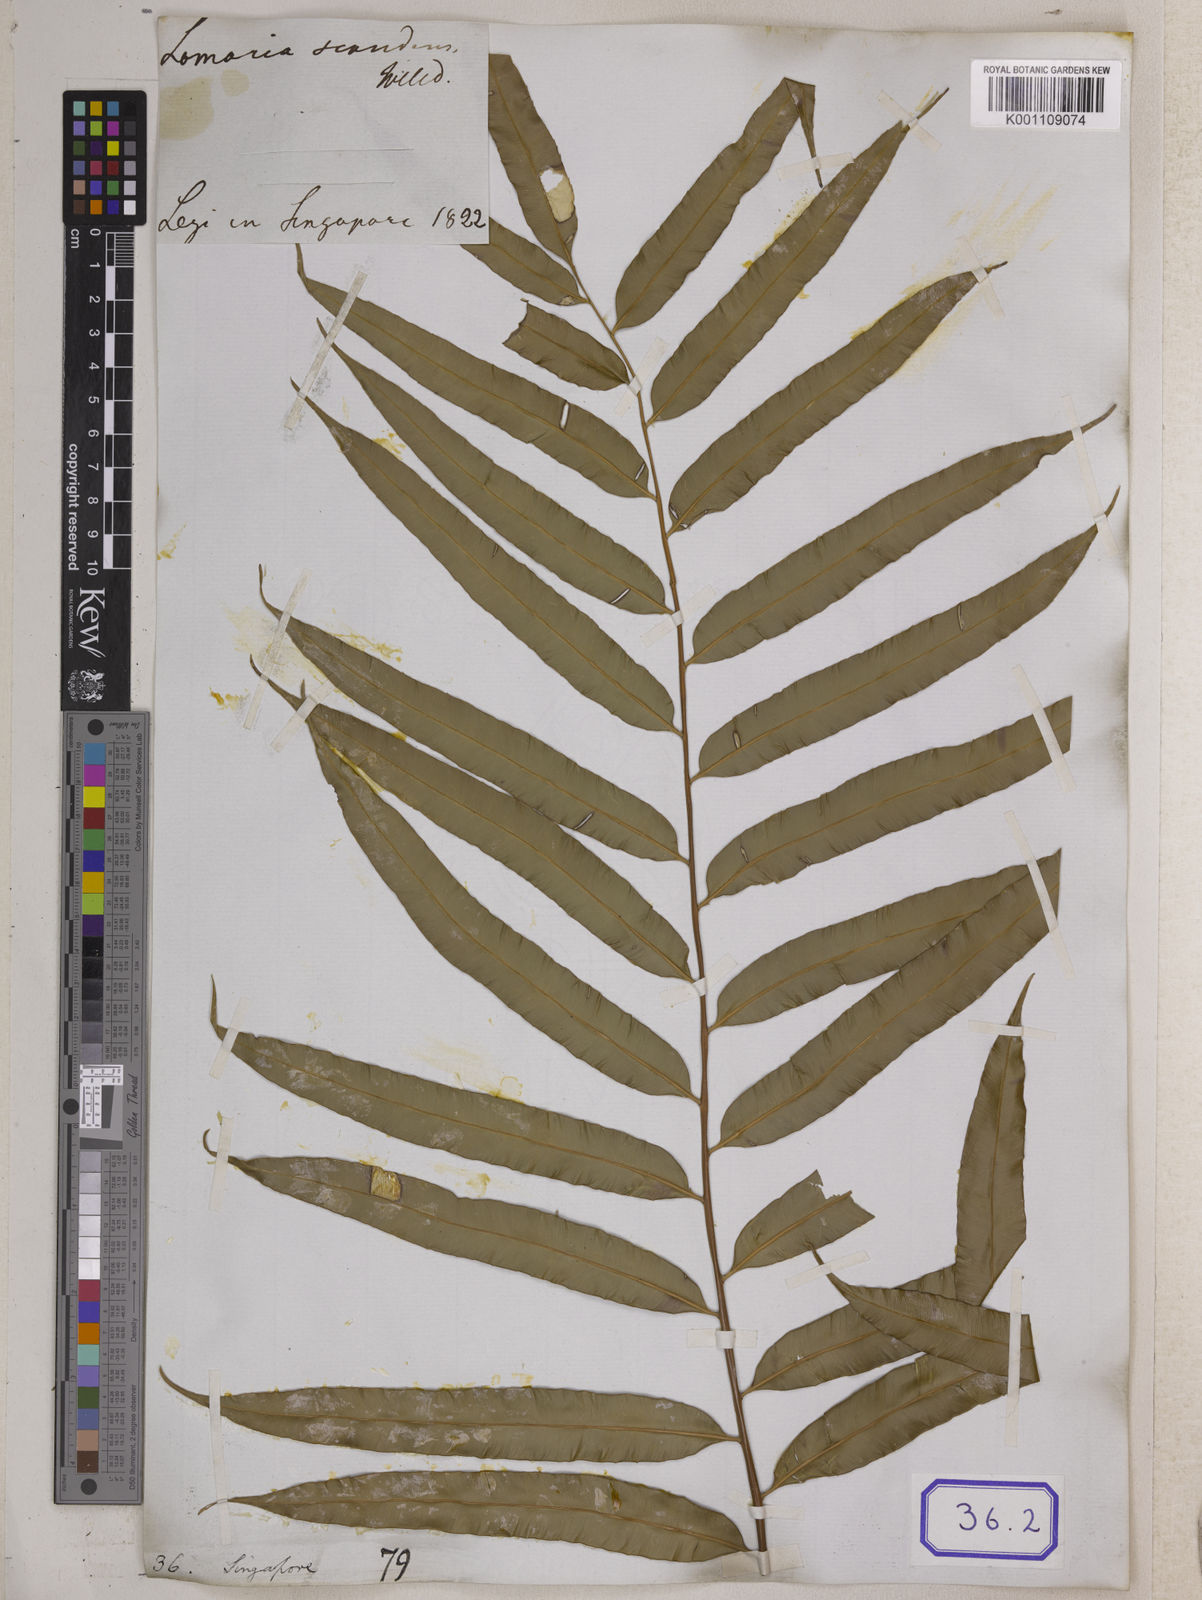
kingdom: Plantae
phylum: Tracheophyta
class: Polypodiopsida
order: Polypodiales
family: Blechnaceae
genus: Stenochlaena
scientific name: Stenochlaena palustris
